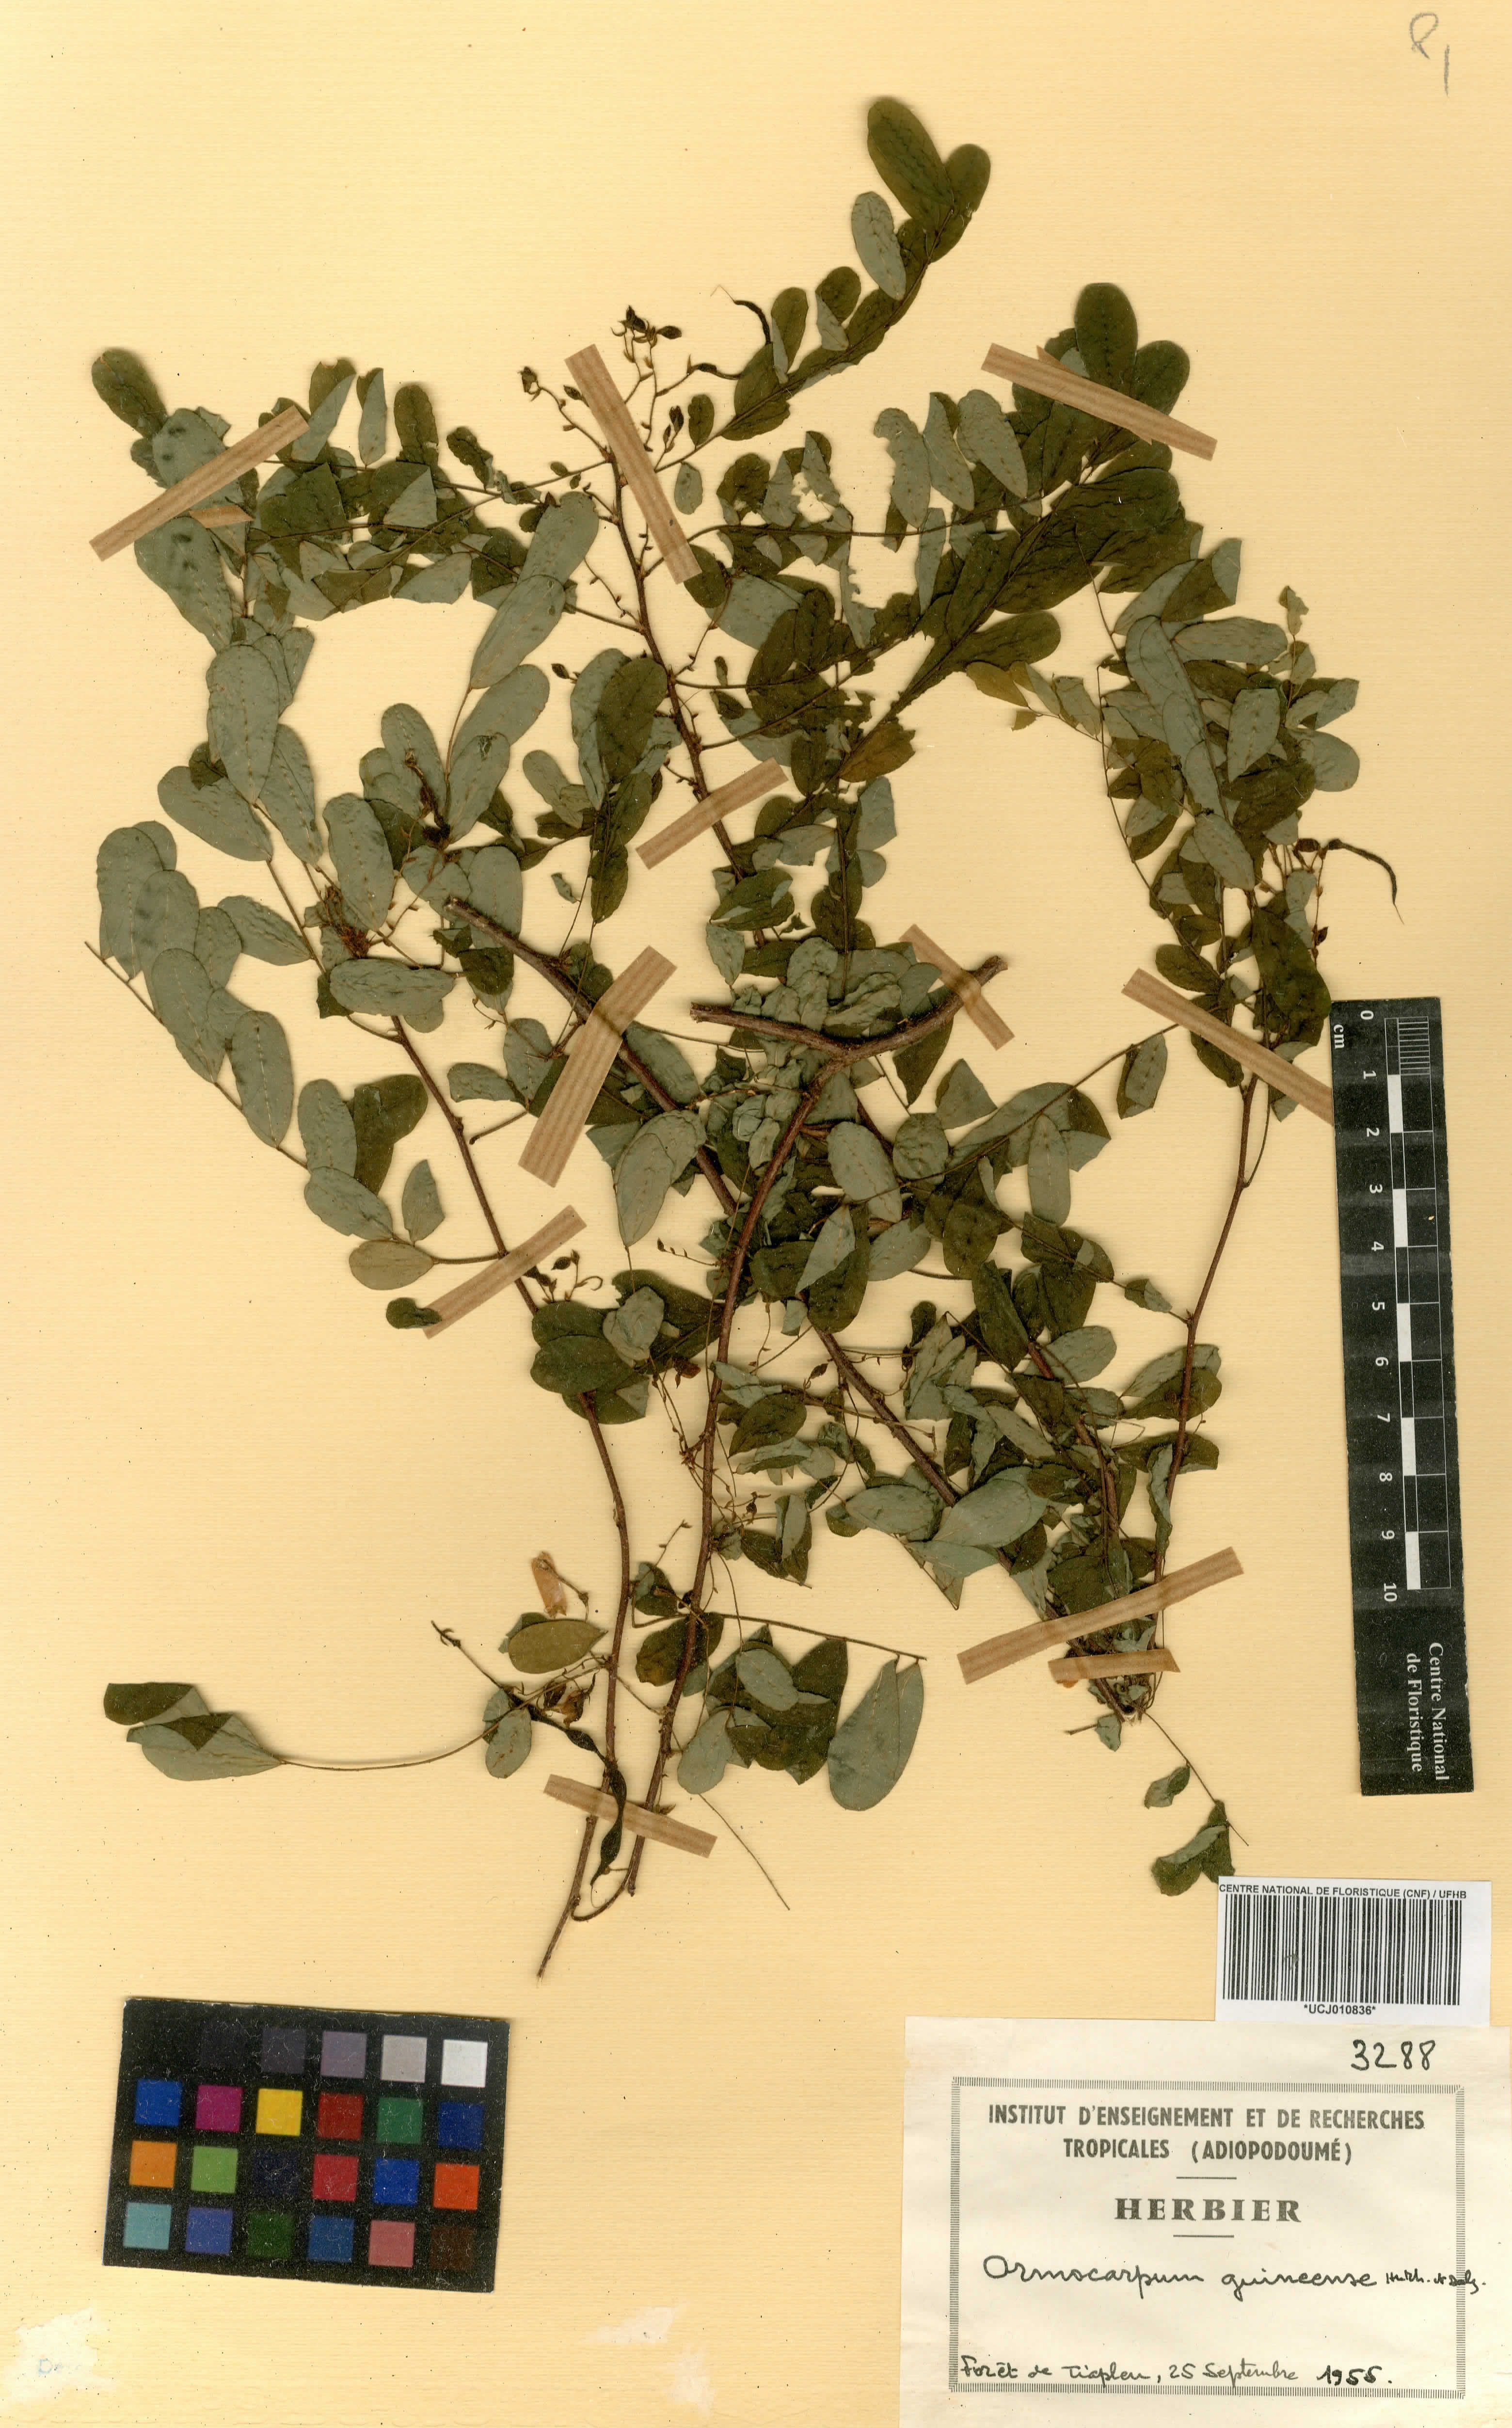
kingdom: Plantae
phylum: Tracheophyta
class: Magnoliopsida
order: Fabales
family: Fabaceae
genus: Ormocarpum
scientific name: Ormocarpum sennoides
